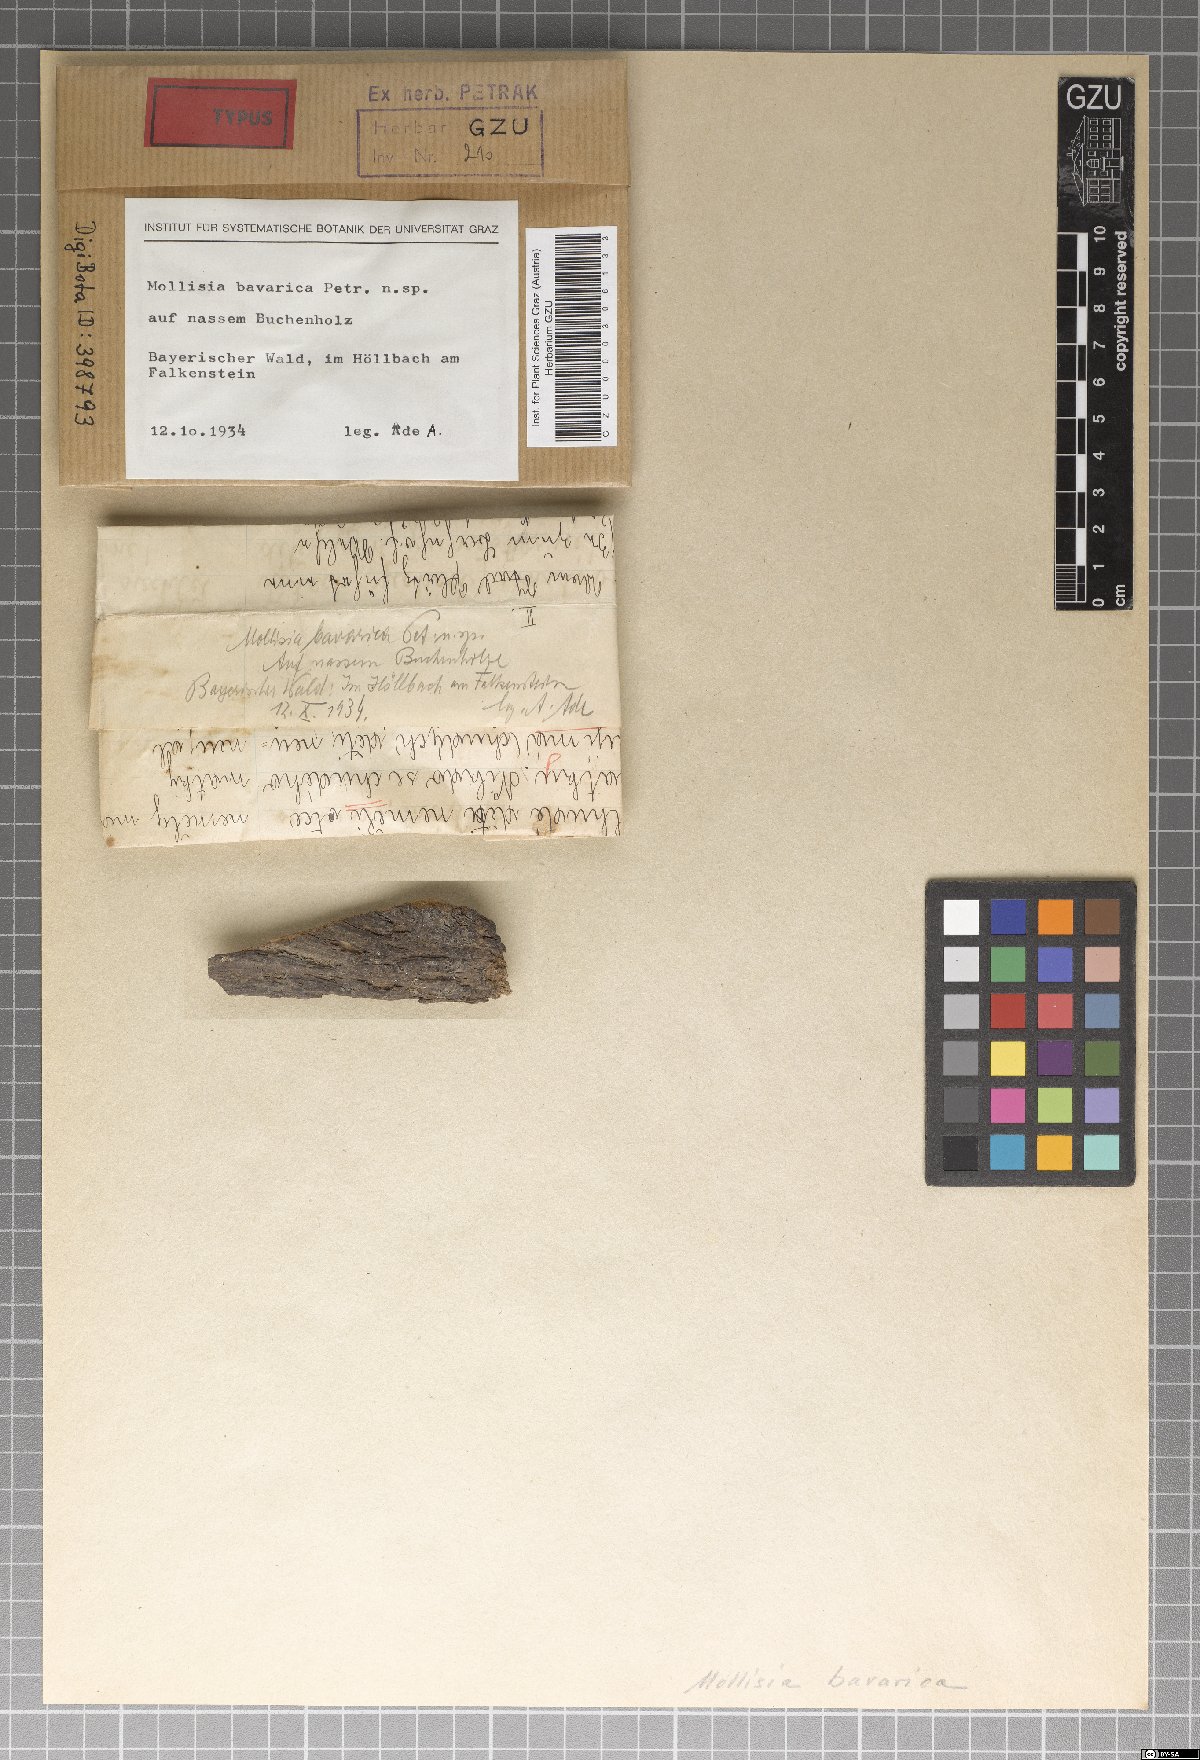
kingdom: Fungi
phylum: Ascomycota
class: Leotiomycetes
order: Helotiales
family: Mollisiaceae
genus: Mollisia
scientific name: Mollisia bavarica
